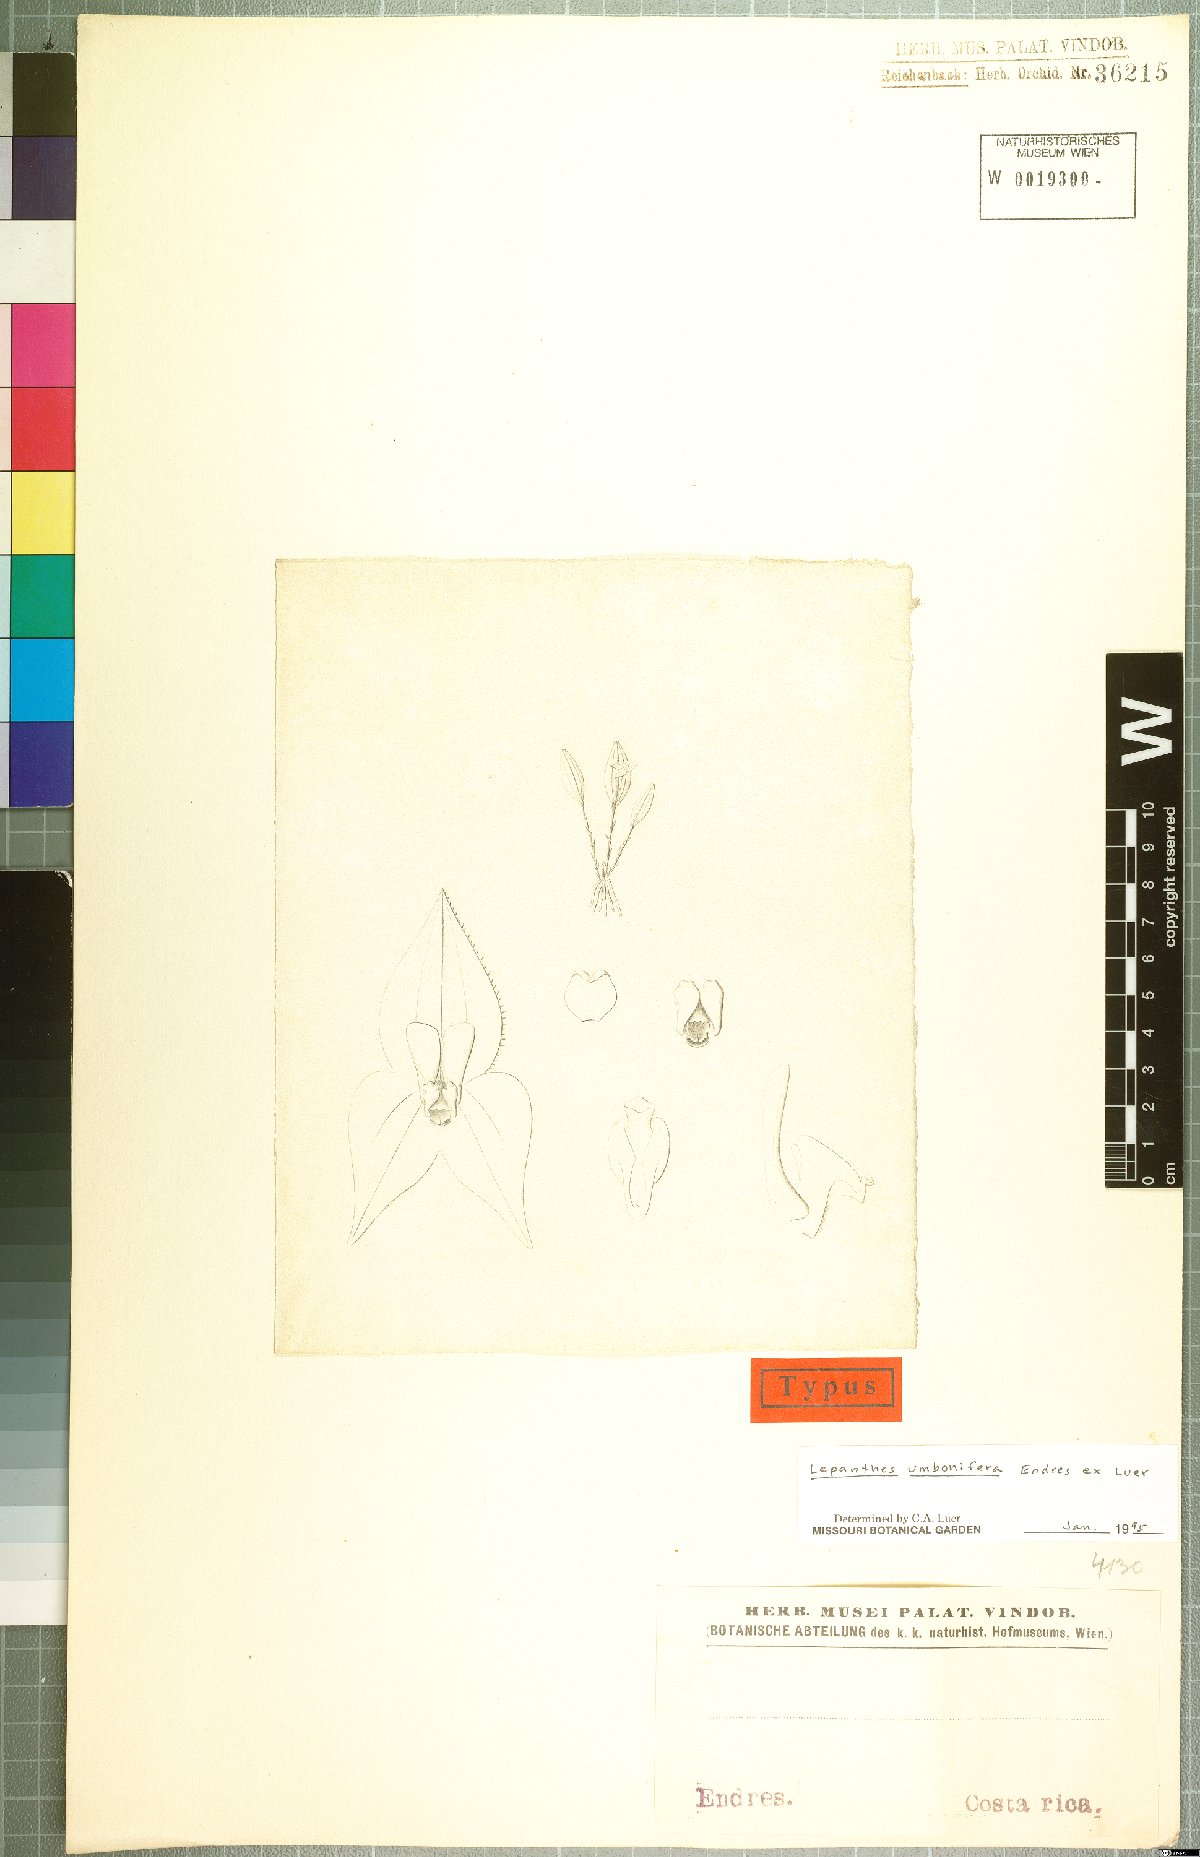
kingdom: Plantae
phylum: Tracheophyta
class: Liliopsida
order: Asparagales
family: Orchidaceae
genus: Lepanthes
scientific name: Lepanthes umbonifera
